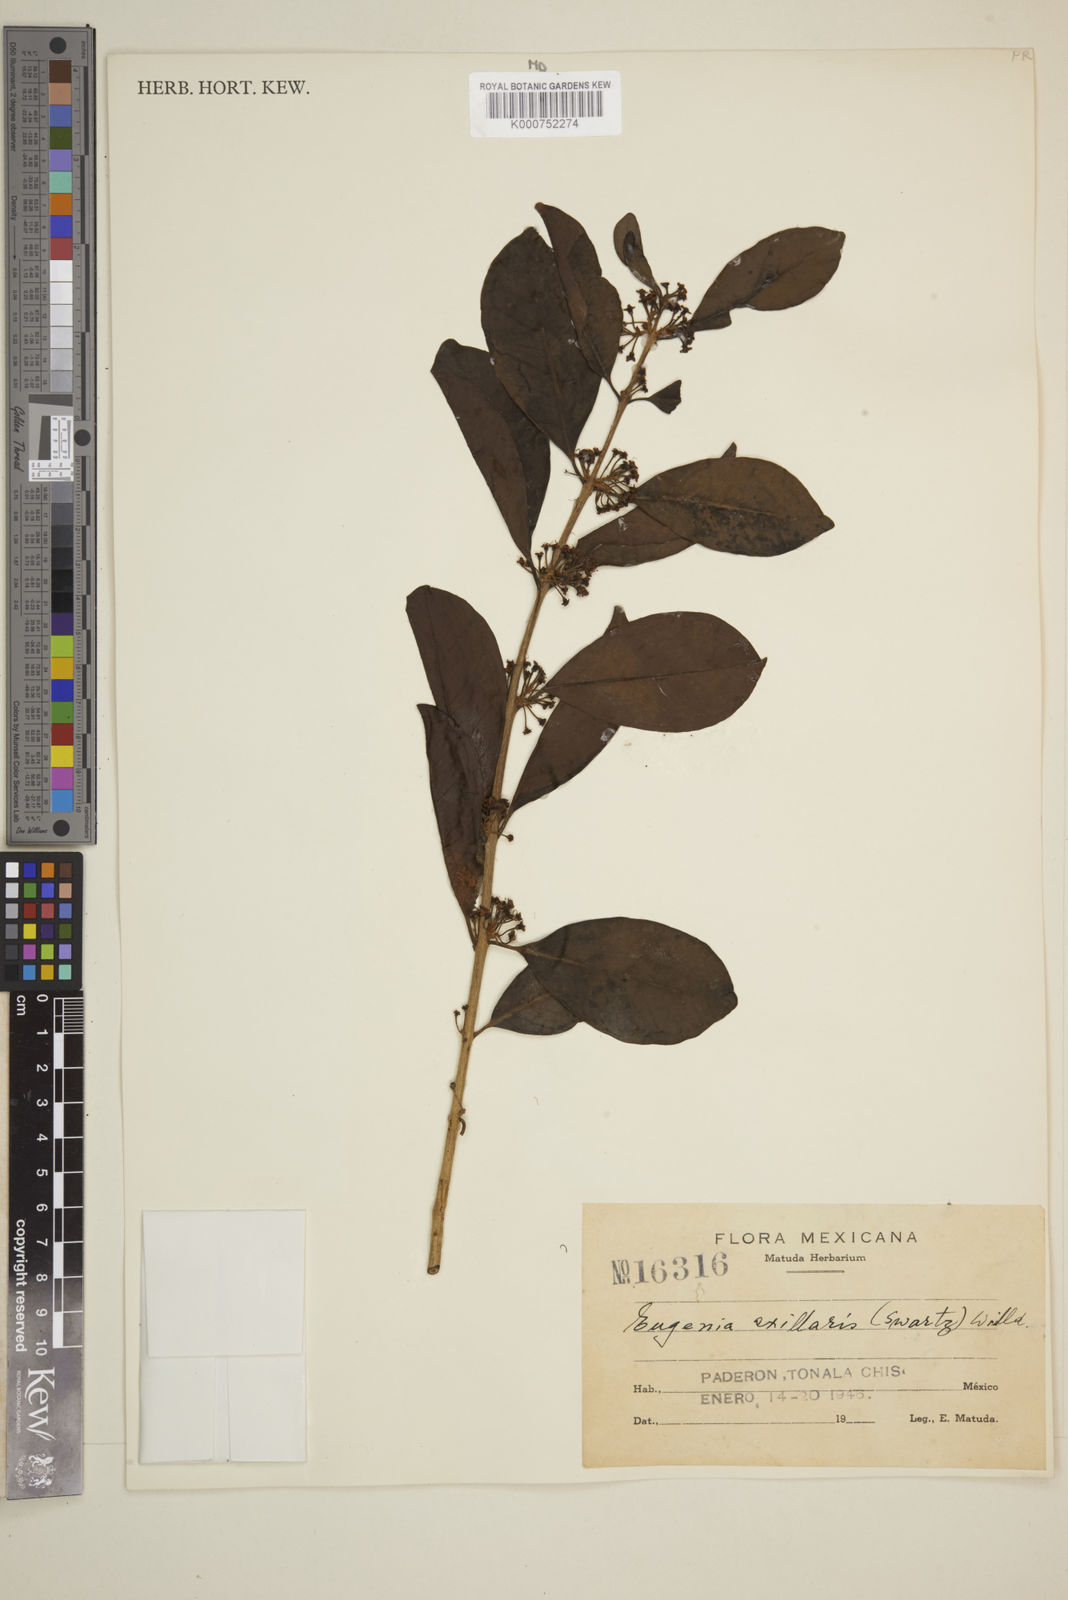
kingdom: Plantae
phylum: Tracheophyta
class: Magnoliopsida
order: Myrtales
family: Myrtaceae
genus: Eugenia
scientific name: Eugenia axillaris
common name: Choaky berry
